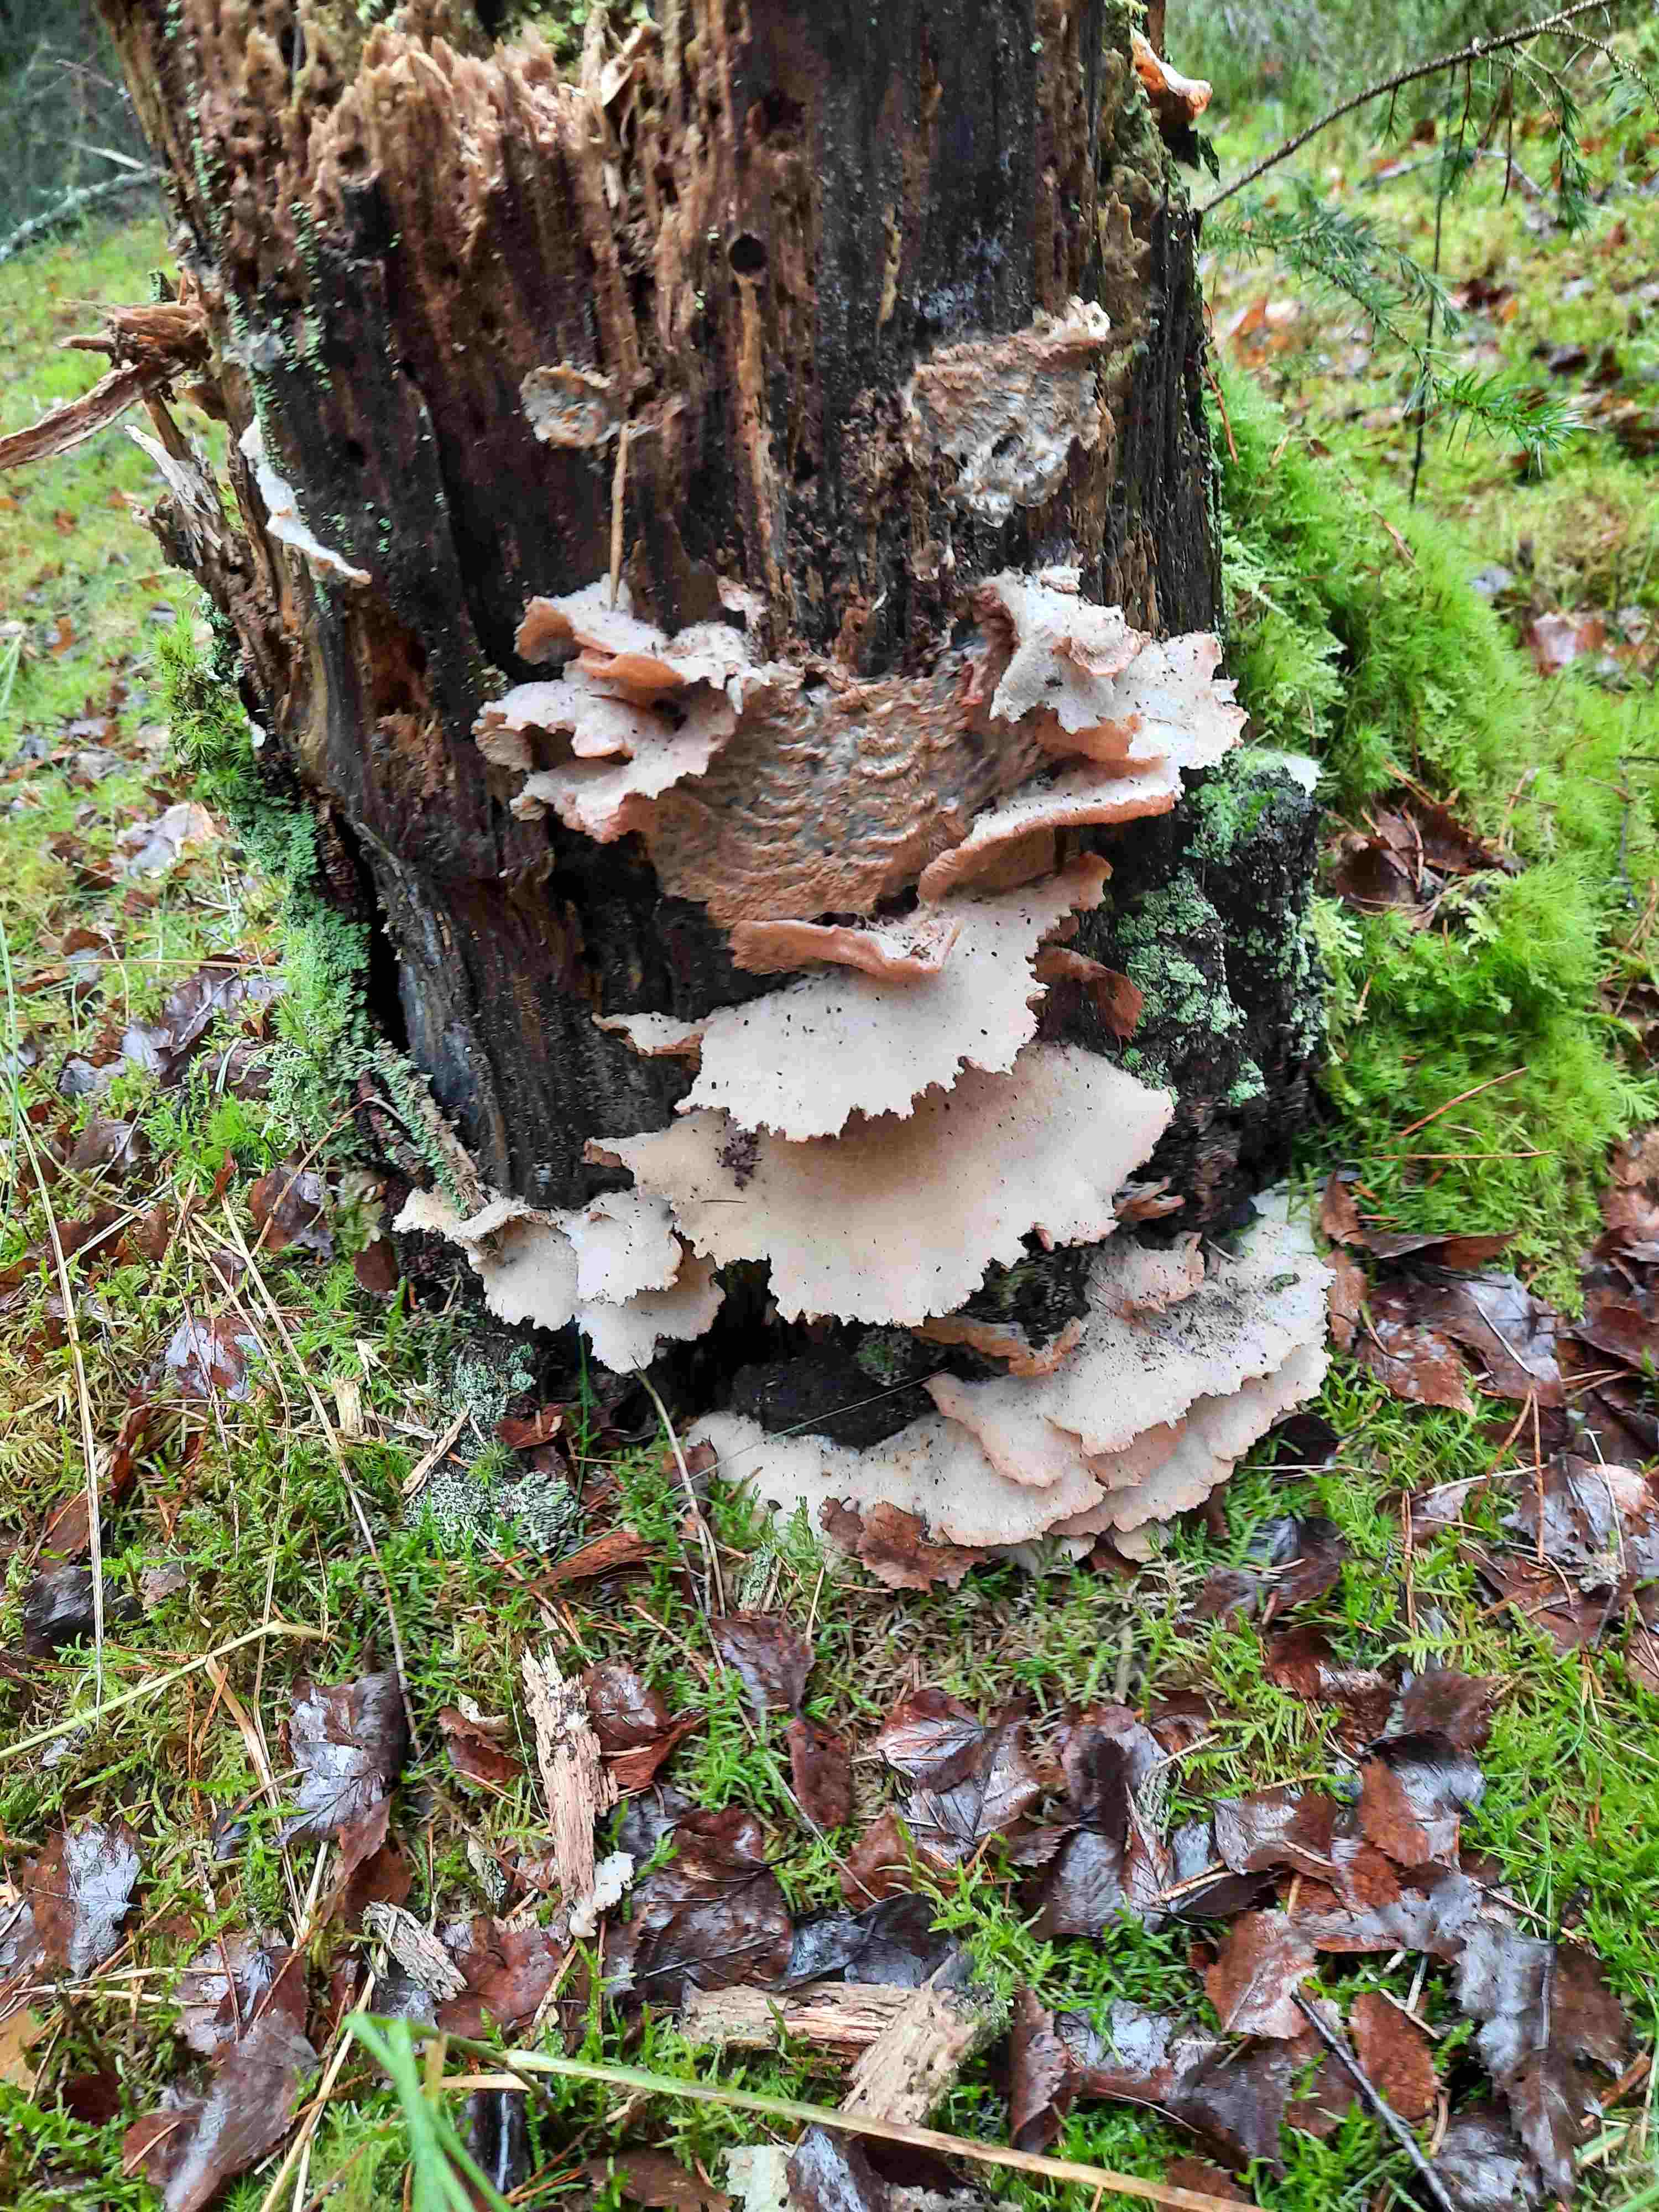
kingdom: Fungi
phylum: Basidiomycota
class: Agaricomycetes
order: Polyporales
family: Meruliaceae
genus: Phlebia
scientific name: Phlebia tremellosa
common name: bævrende åresvamp
